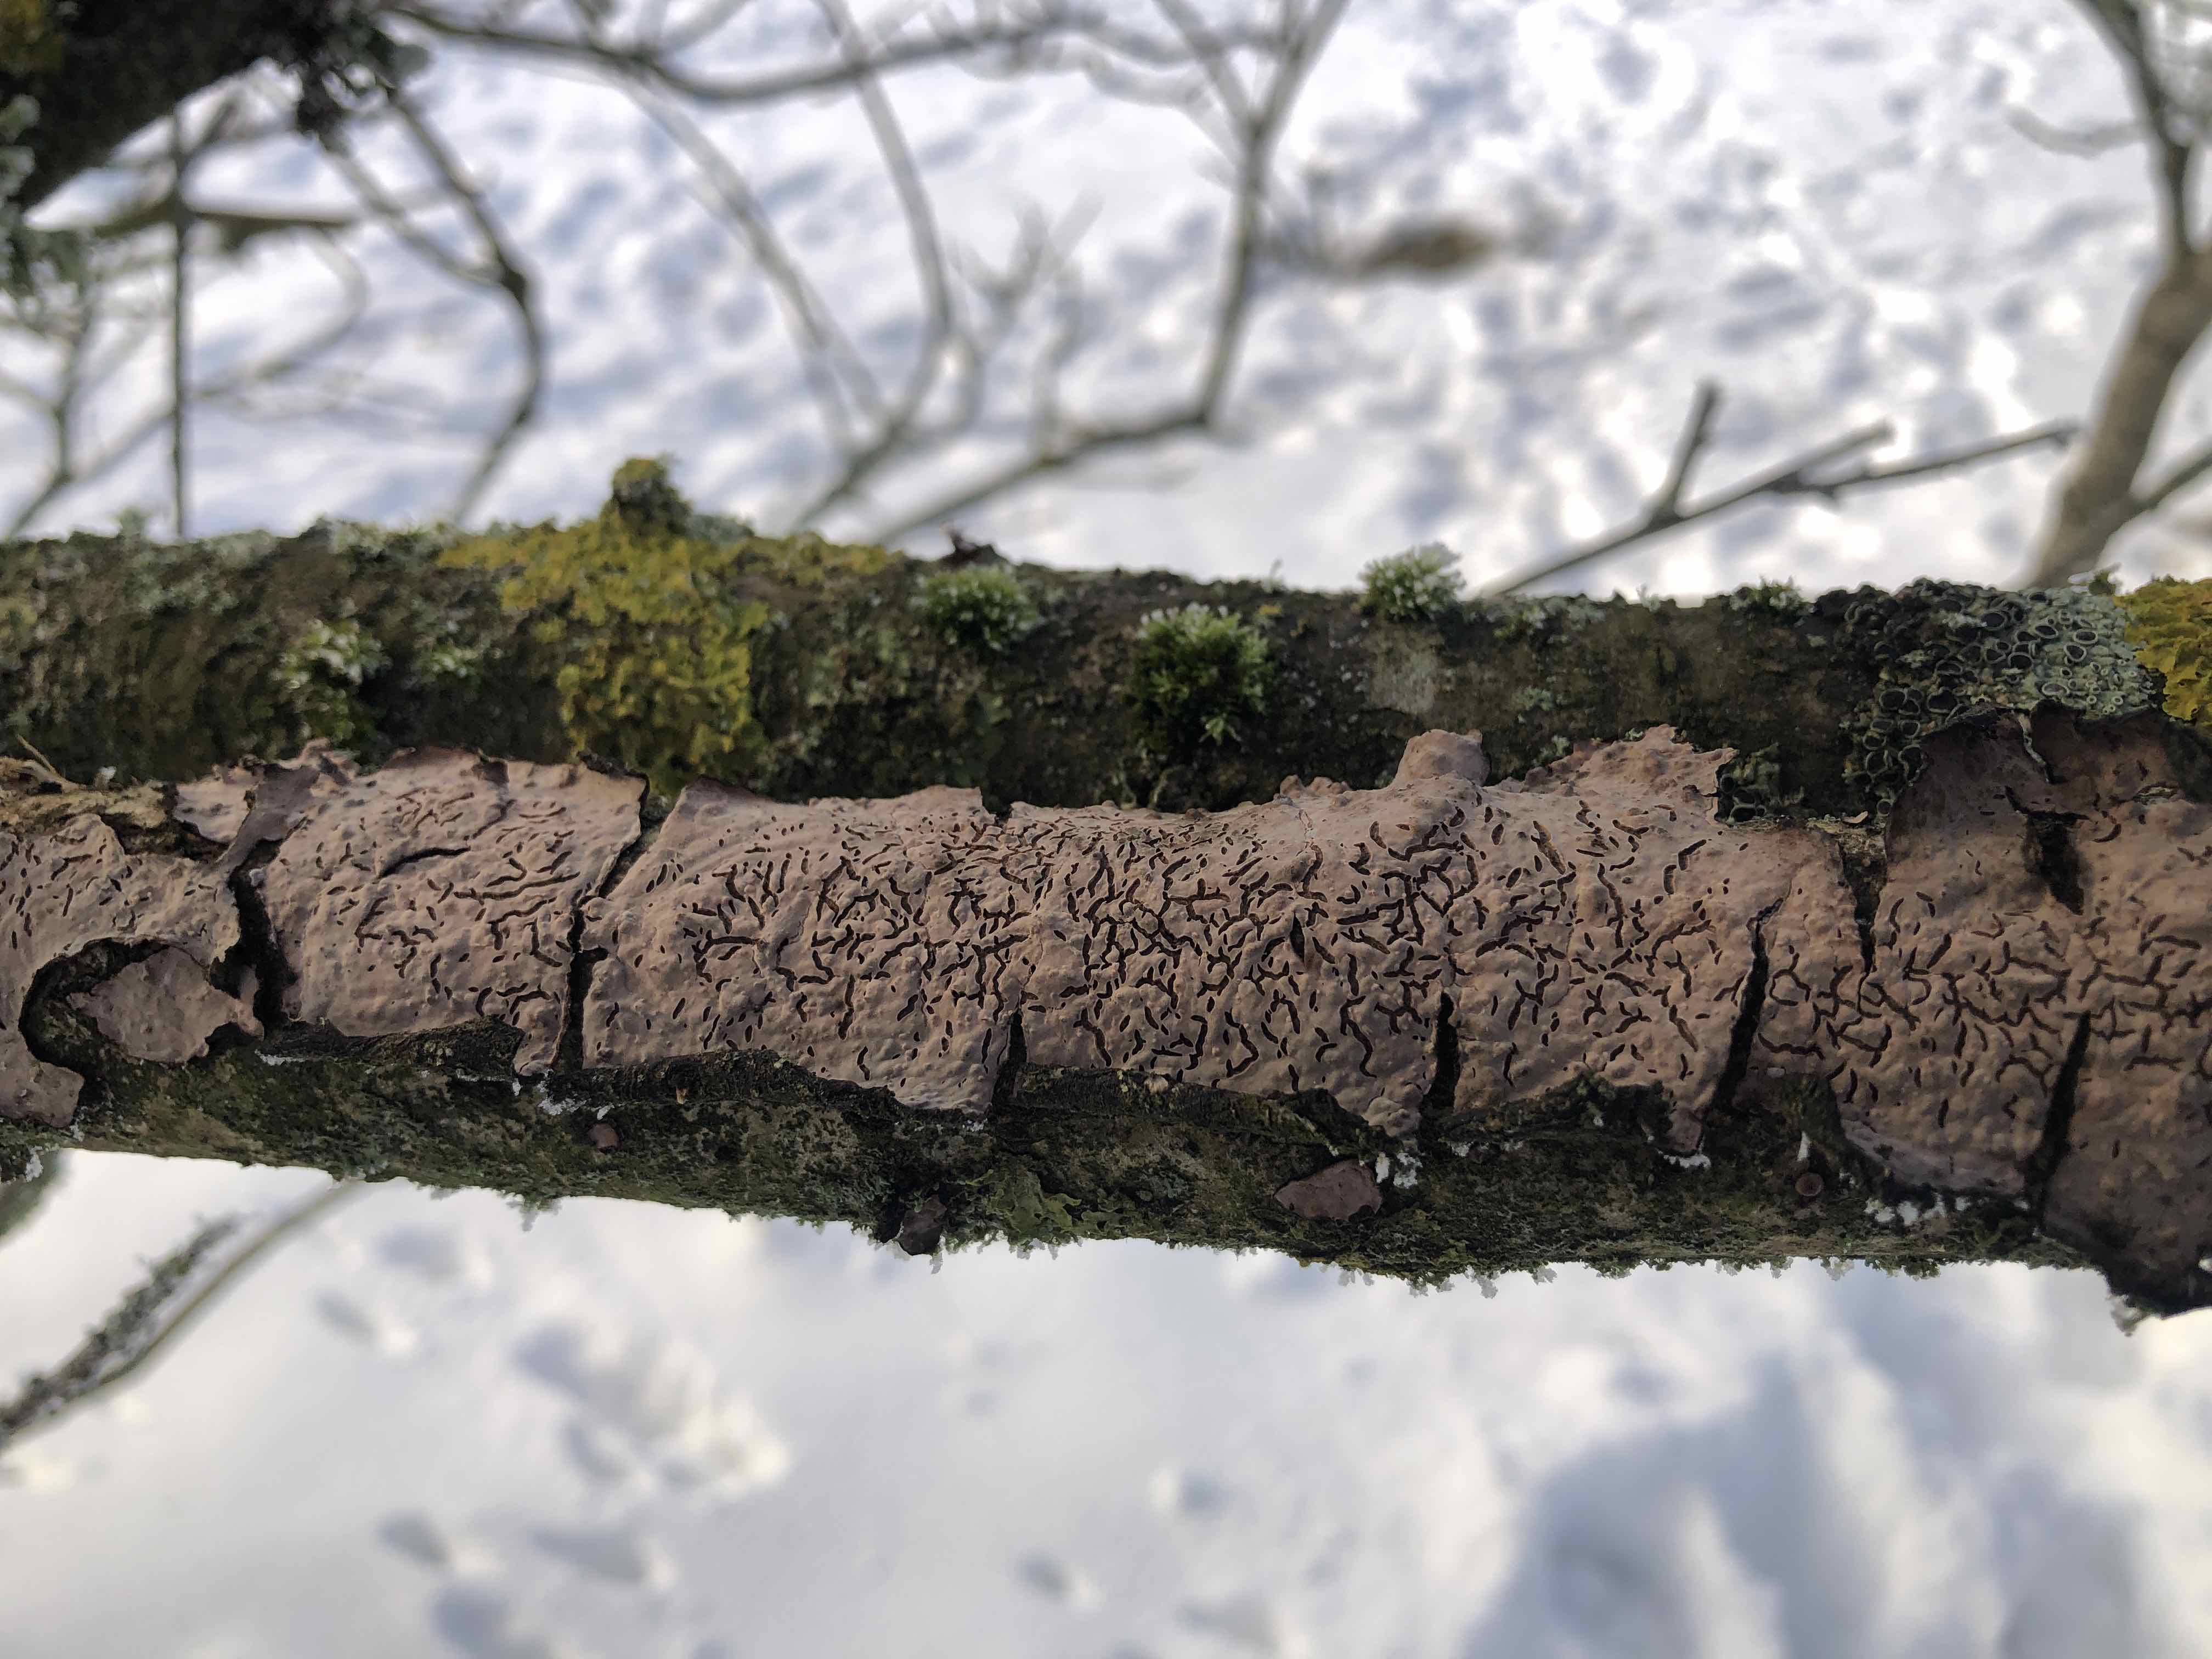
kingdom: Fungi
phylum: Basidiomycota
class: Agaricomycetes
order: Russulales
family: Peniophoraceae
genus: Peniophora
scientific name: Peniophora quercina
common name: ege-voksskind
